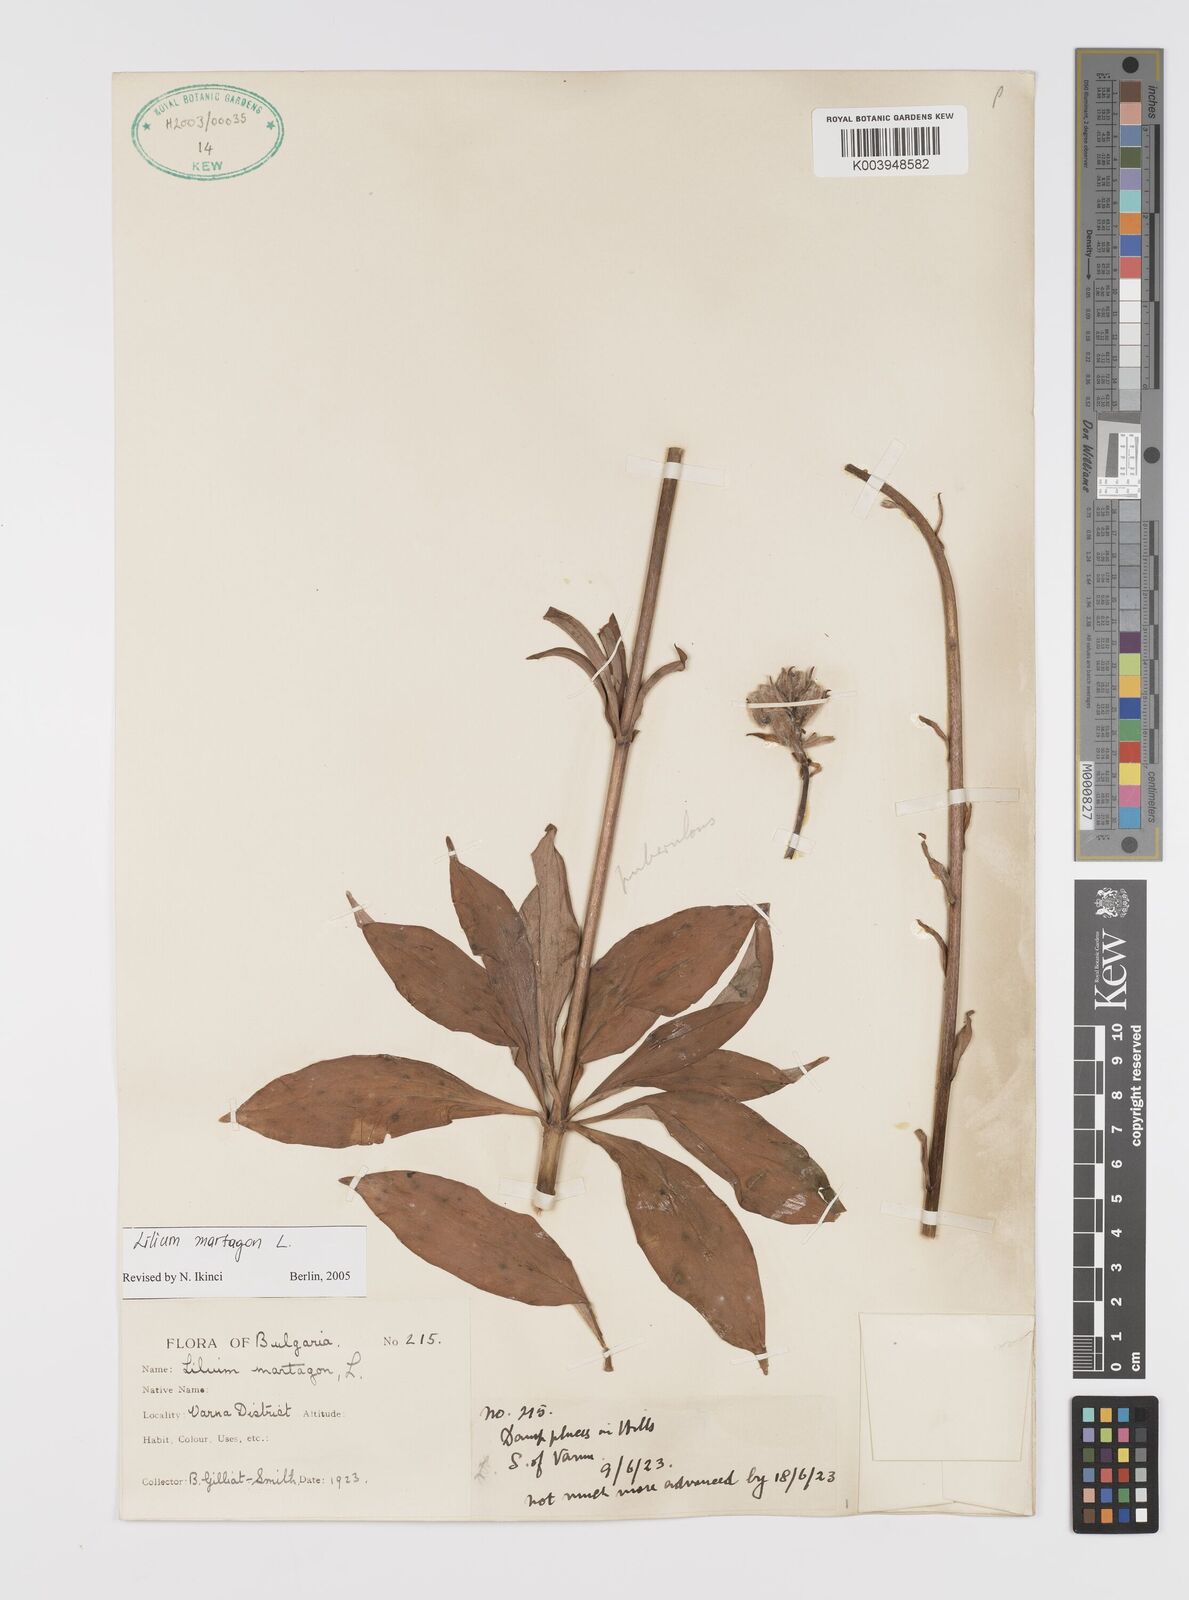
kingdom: Plantae
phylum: Tracheophyta
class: Liliopsida
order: Liliales
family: Liliaceae
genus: Lilium
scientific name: Lilium martagon
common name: Martagon lily
